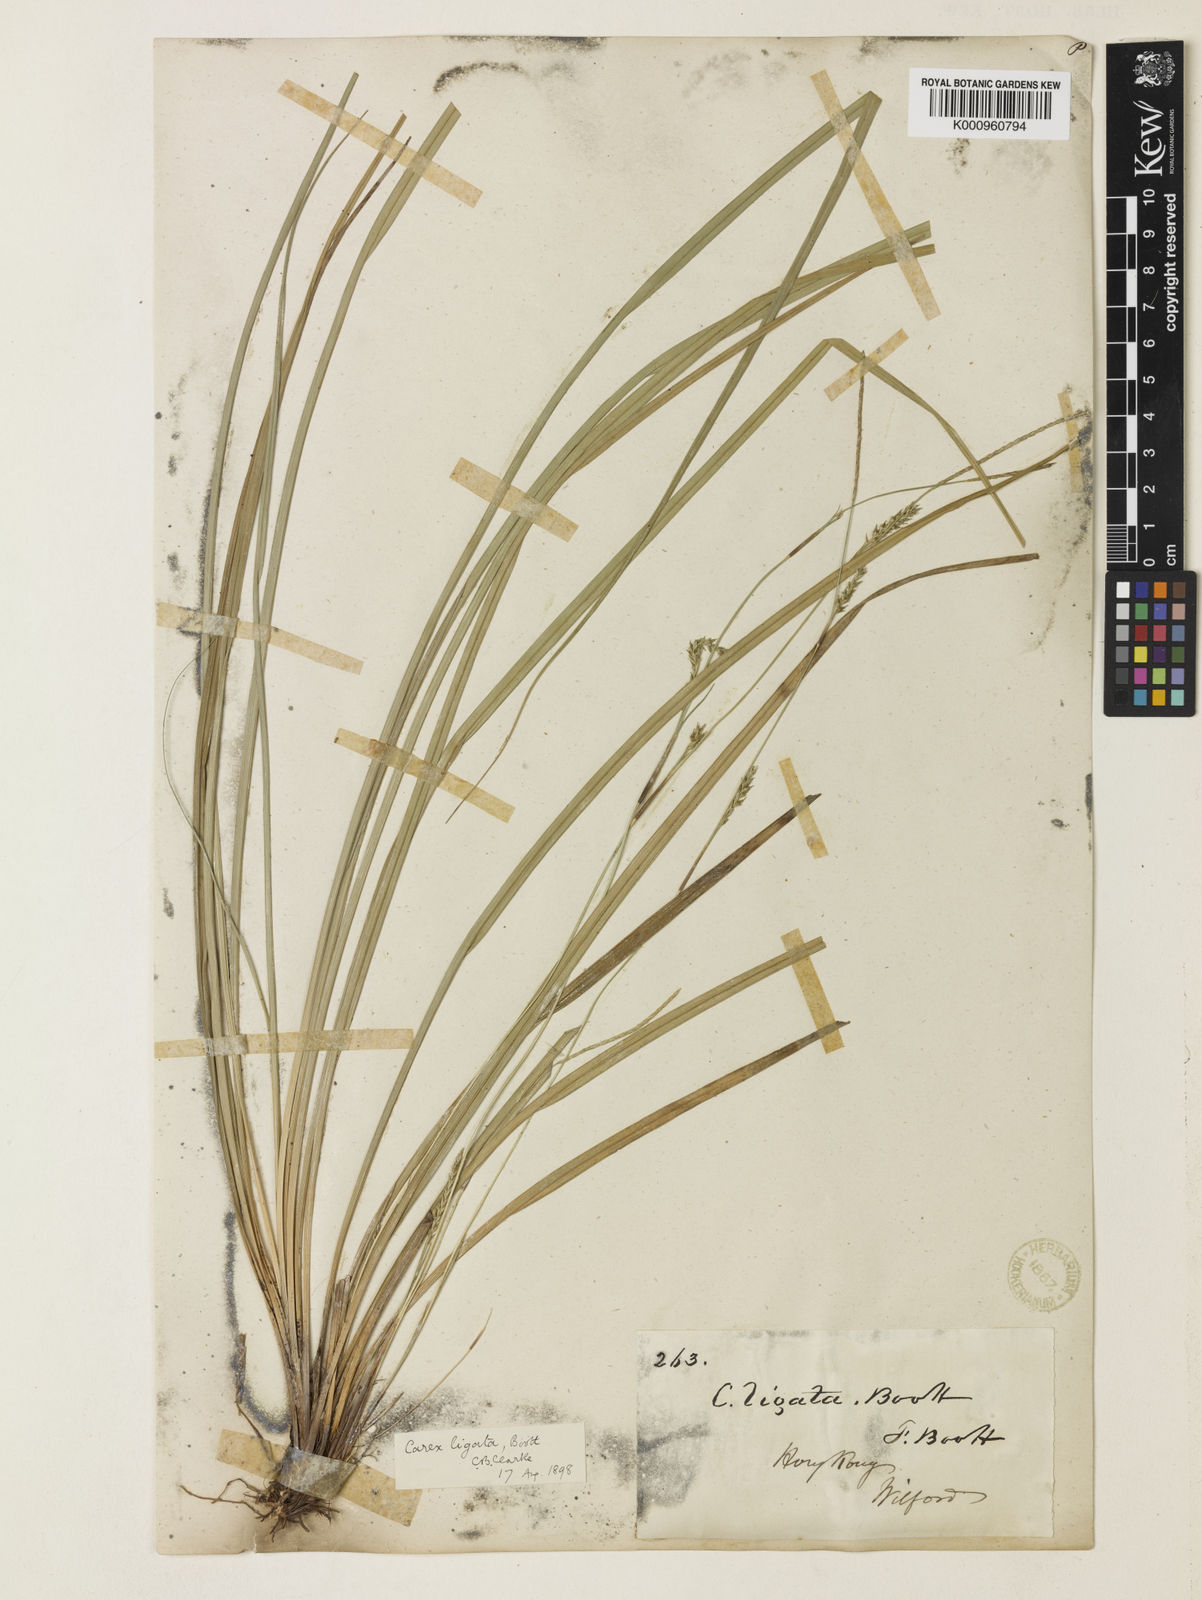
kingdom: Plantae
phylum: Tracheophyta
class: Liliopsida
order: Poales
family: Cyperaceae
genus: Carex
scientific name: Carex ligata
